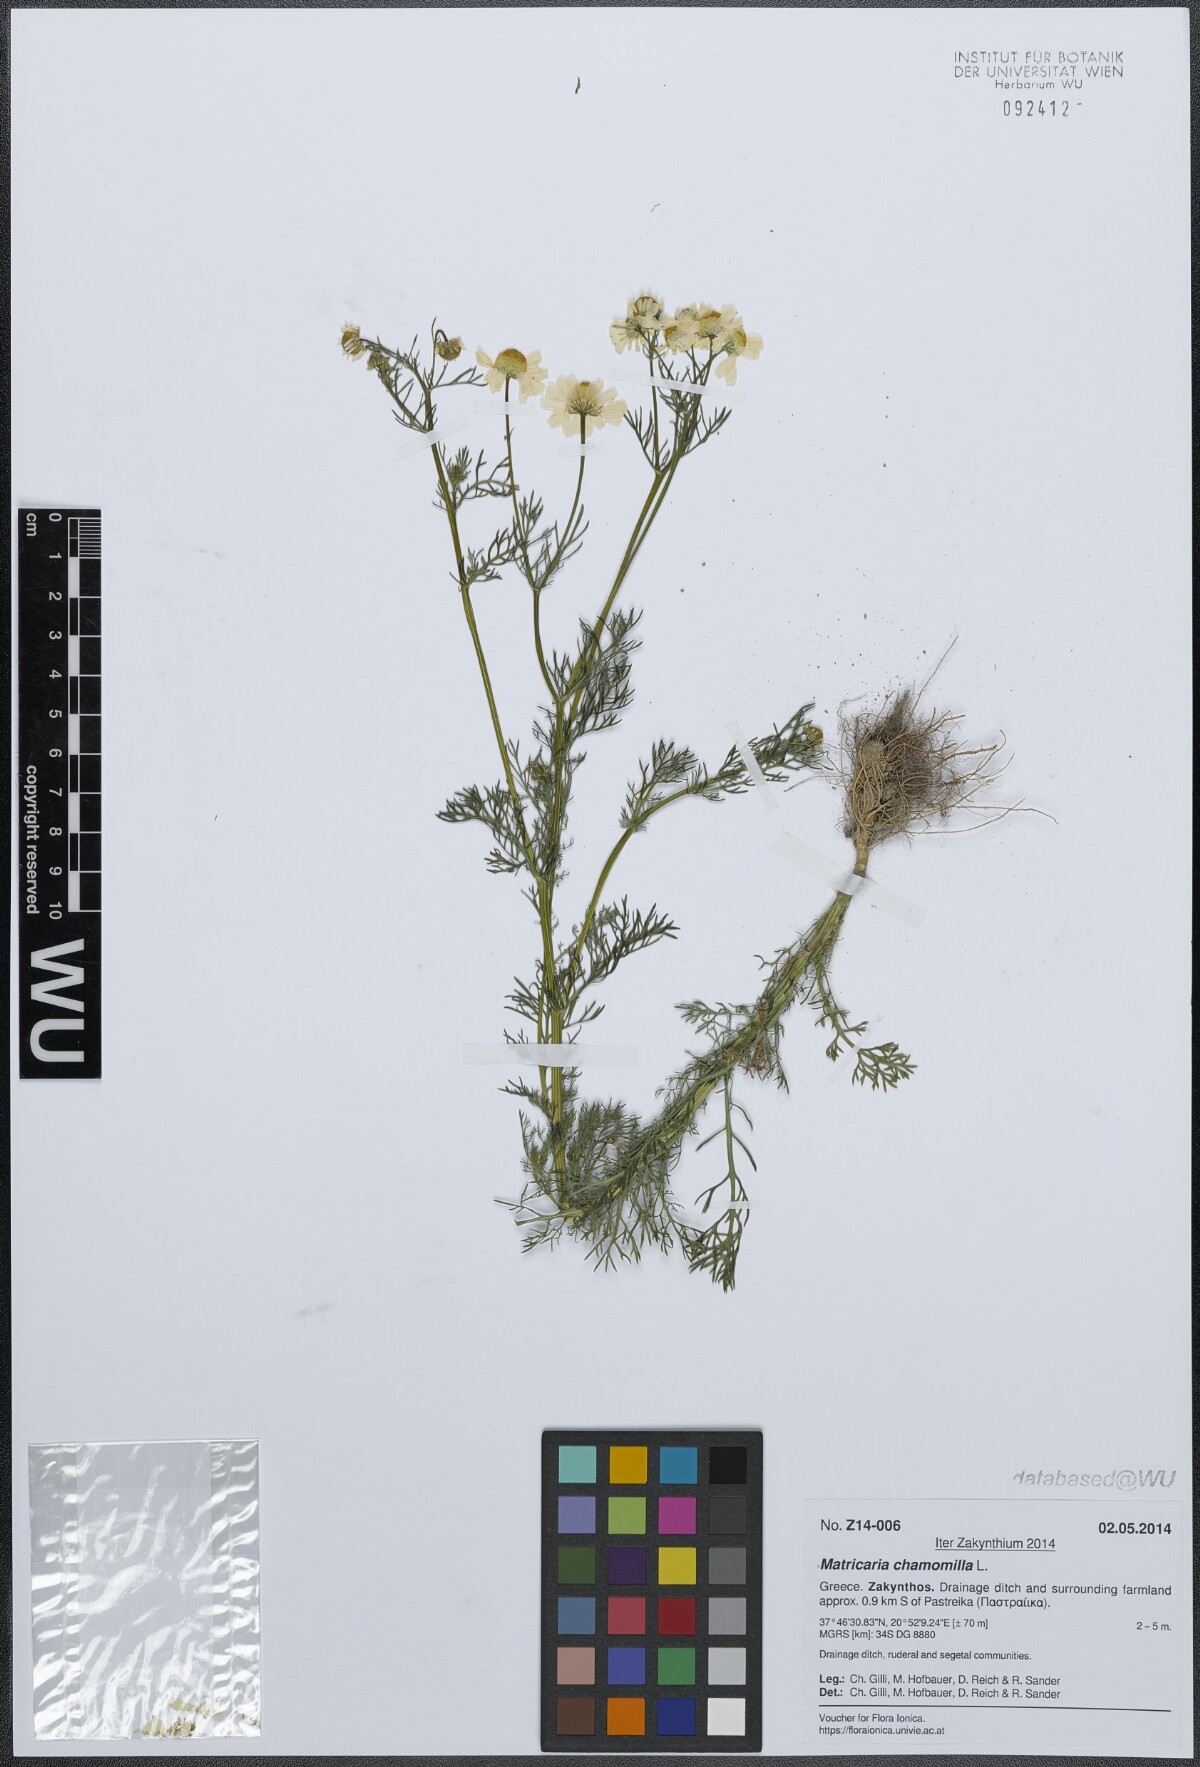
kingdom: Plantae
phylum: Tracheophyta
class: Magnoliopsida
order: Asterales
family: Asteraceae
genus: Matricaria
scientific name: Matricaria chamomilla
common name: Scented mayweed
